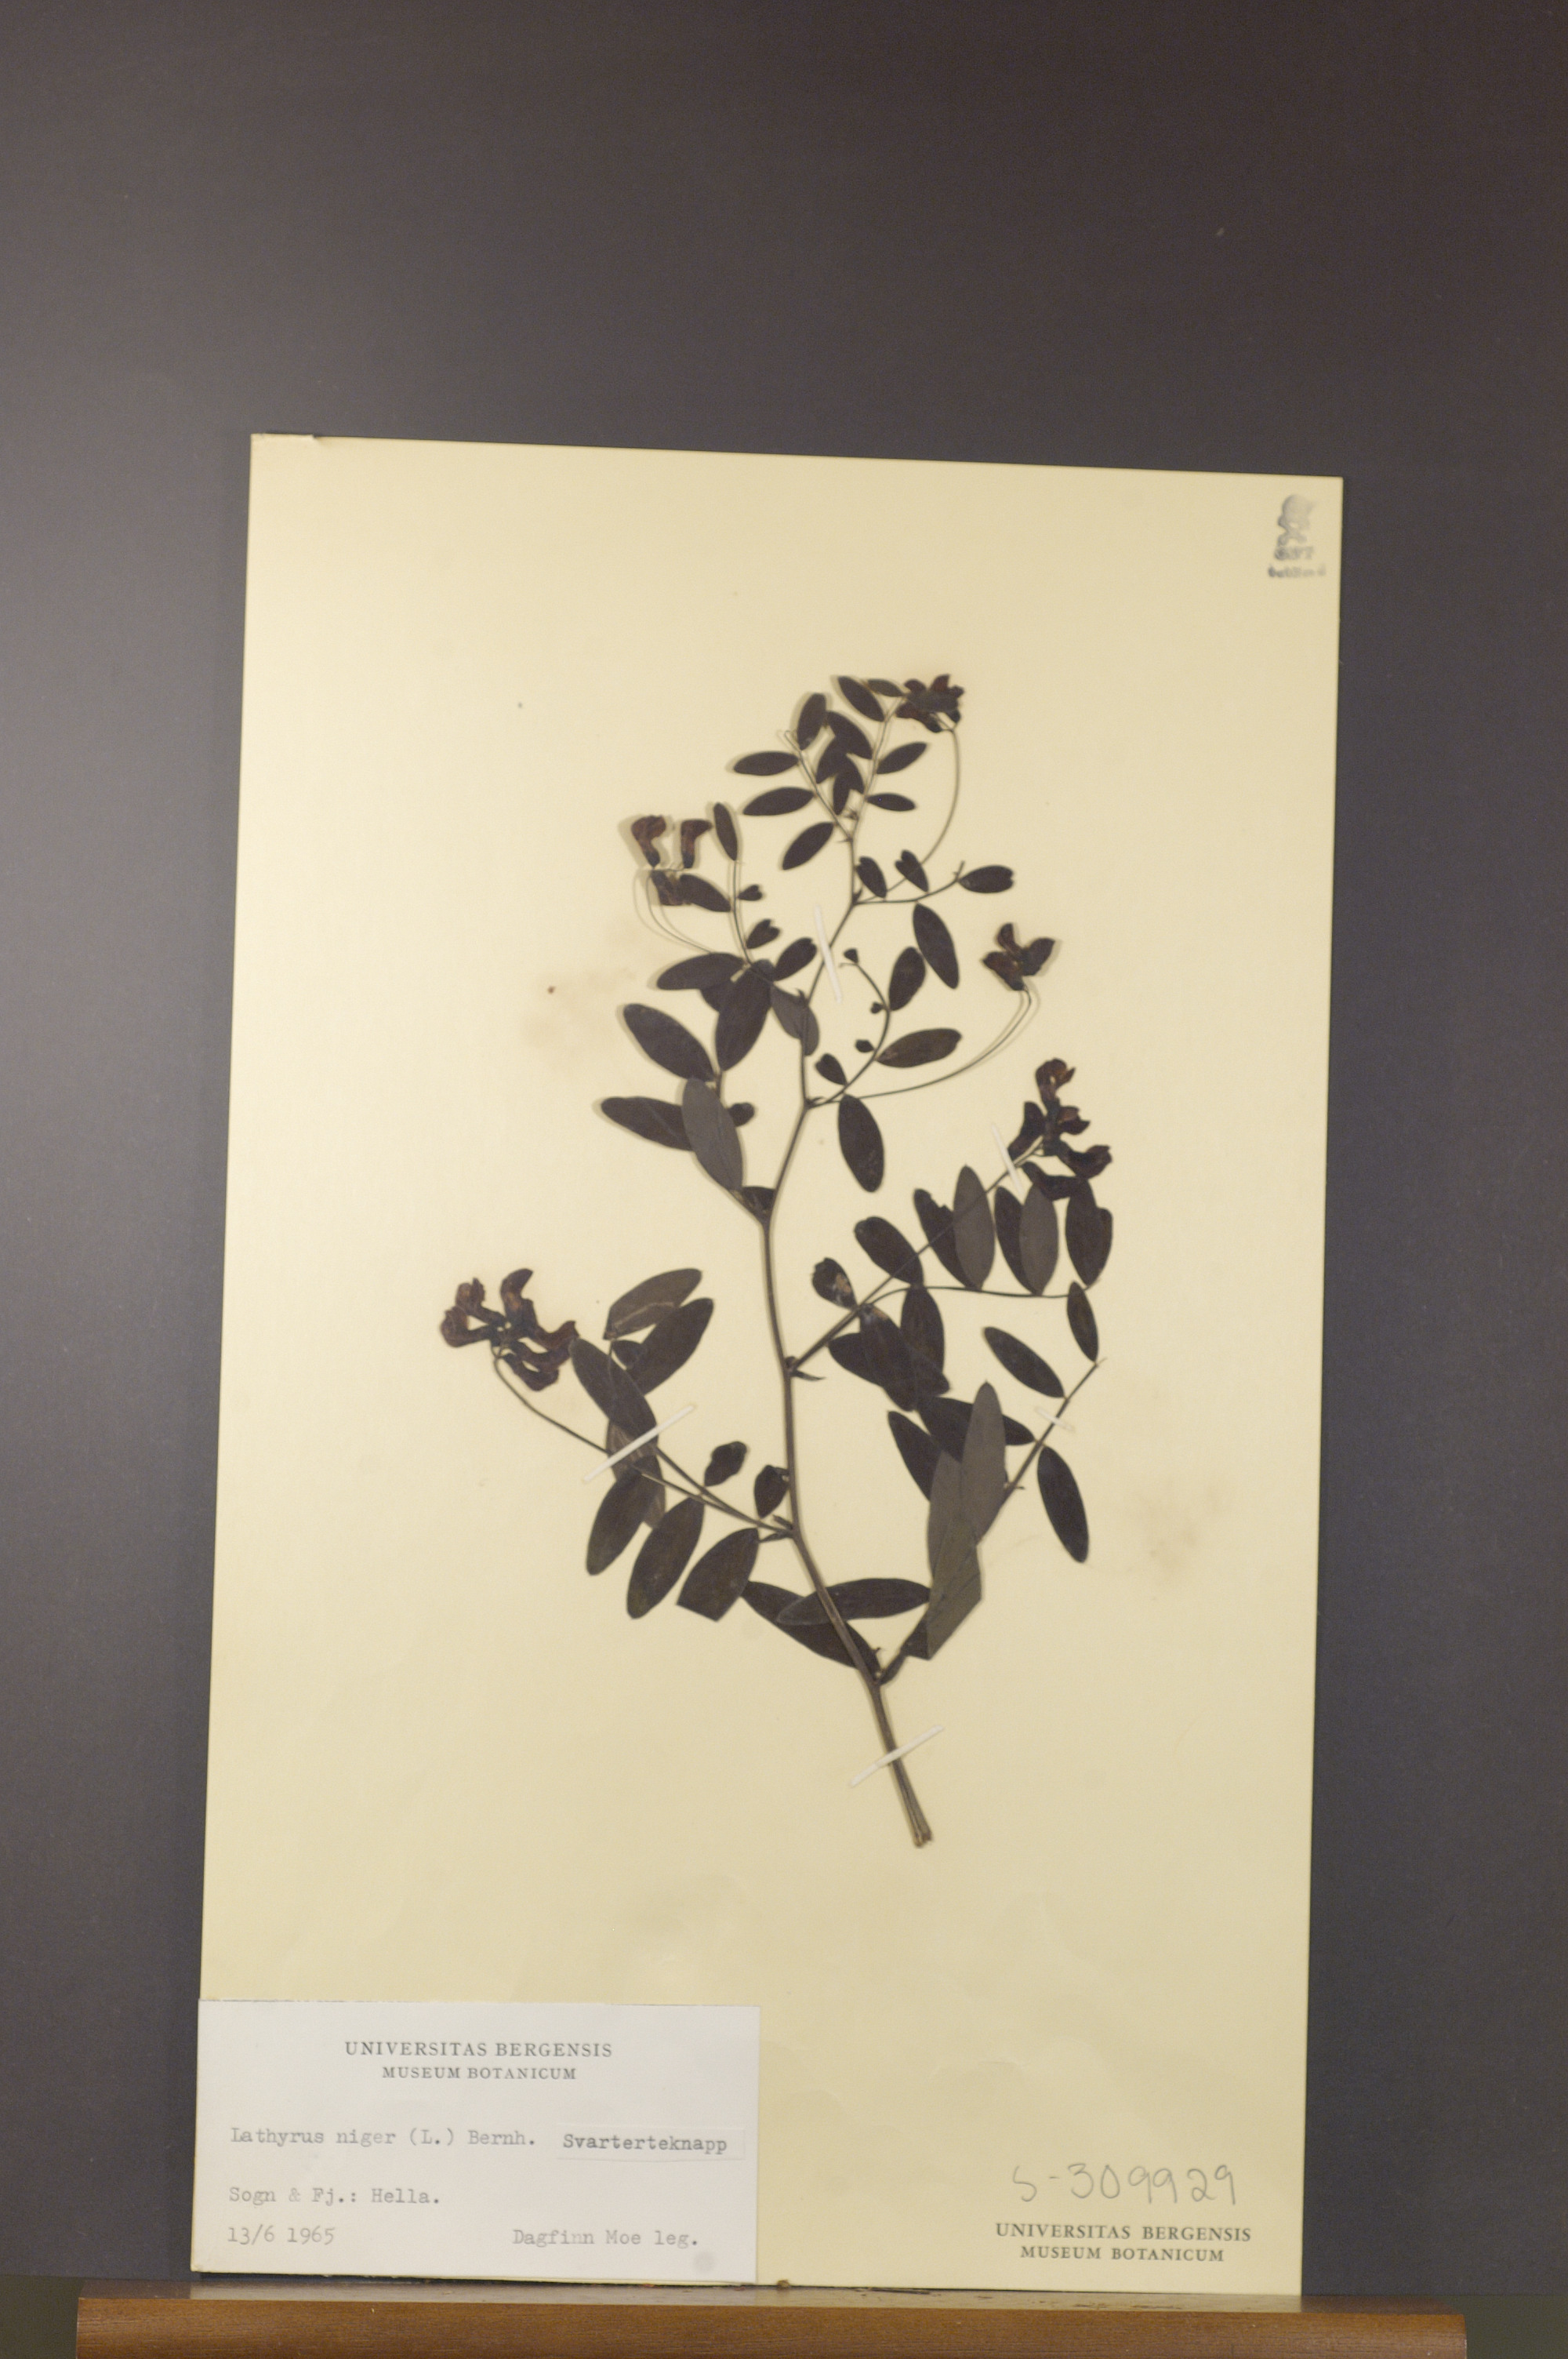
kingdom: Plantae
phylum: Tracheophyta
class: Magnoliopsida
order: Fabales
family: Fabaceae
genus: Lathyrus
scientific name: Lathyrus niger
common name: Black pea
